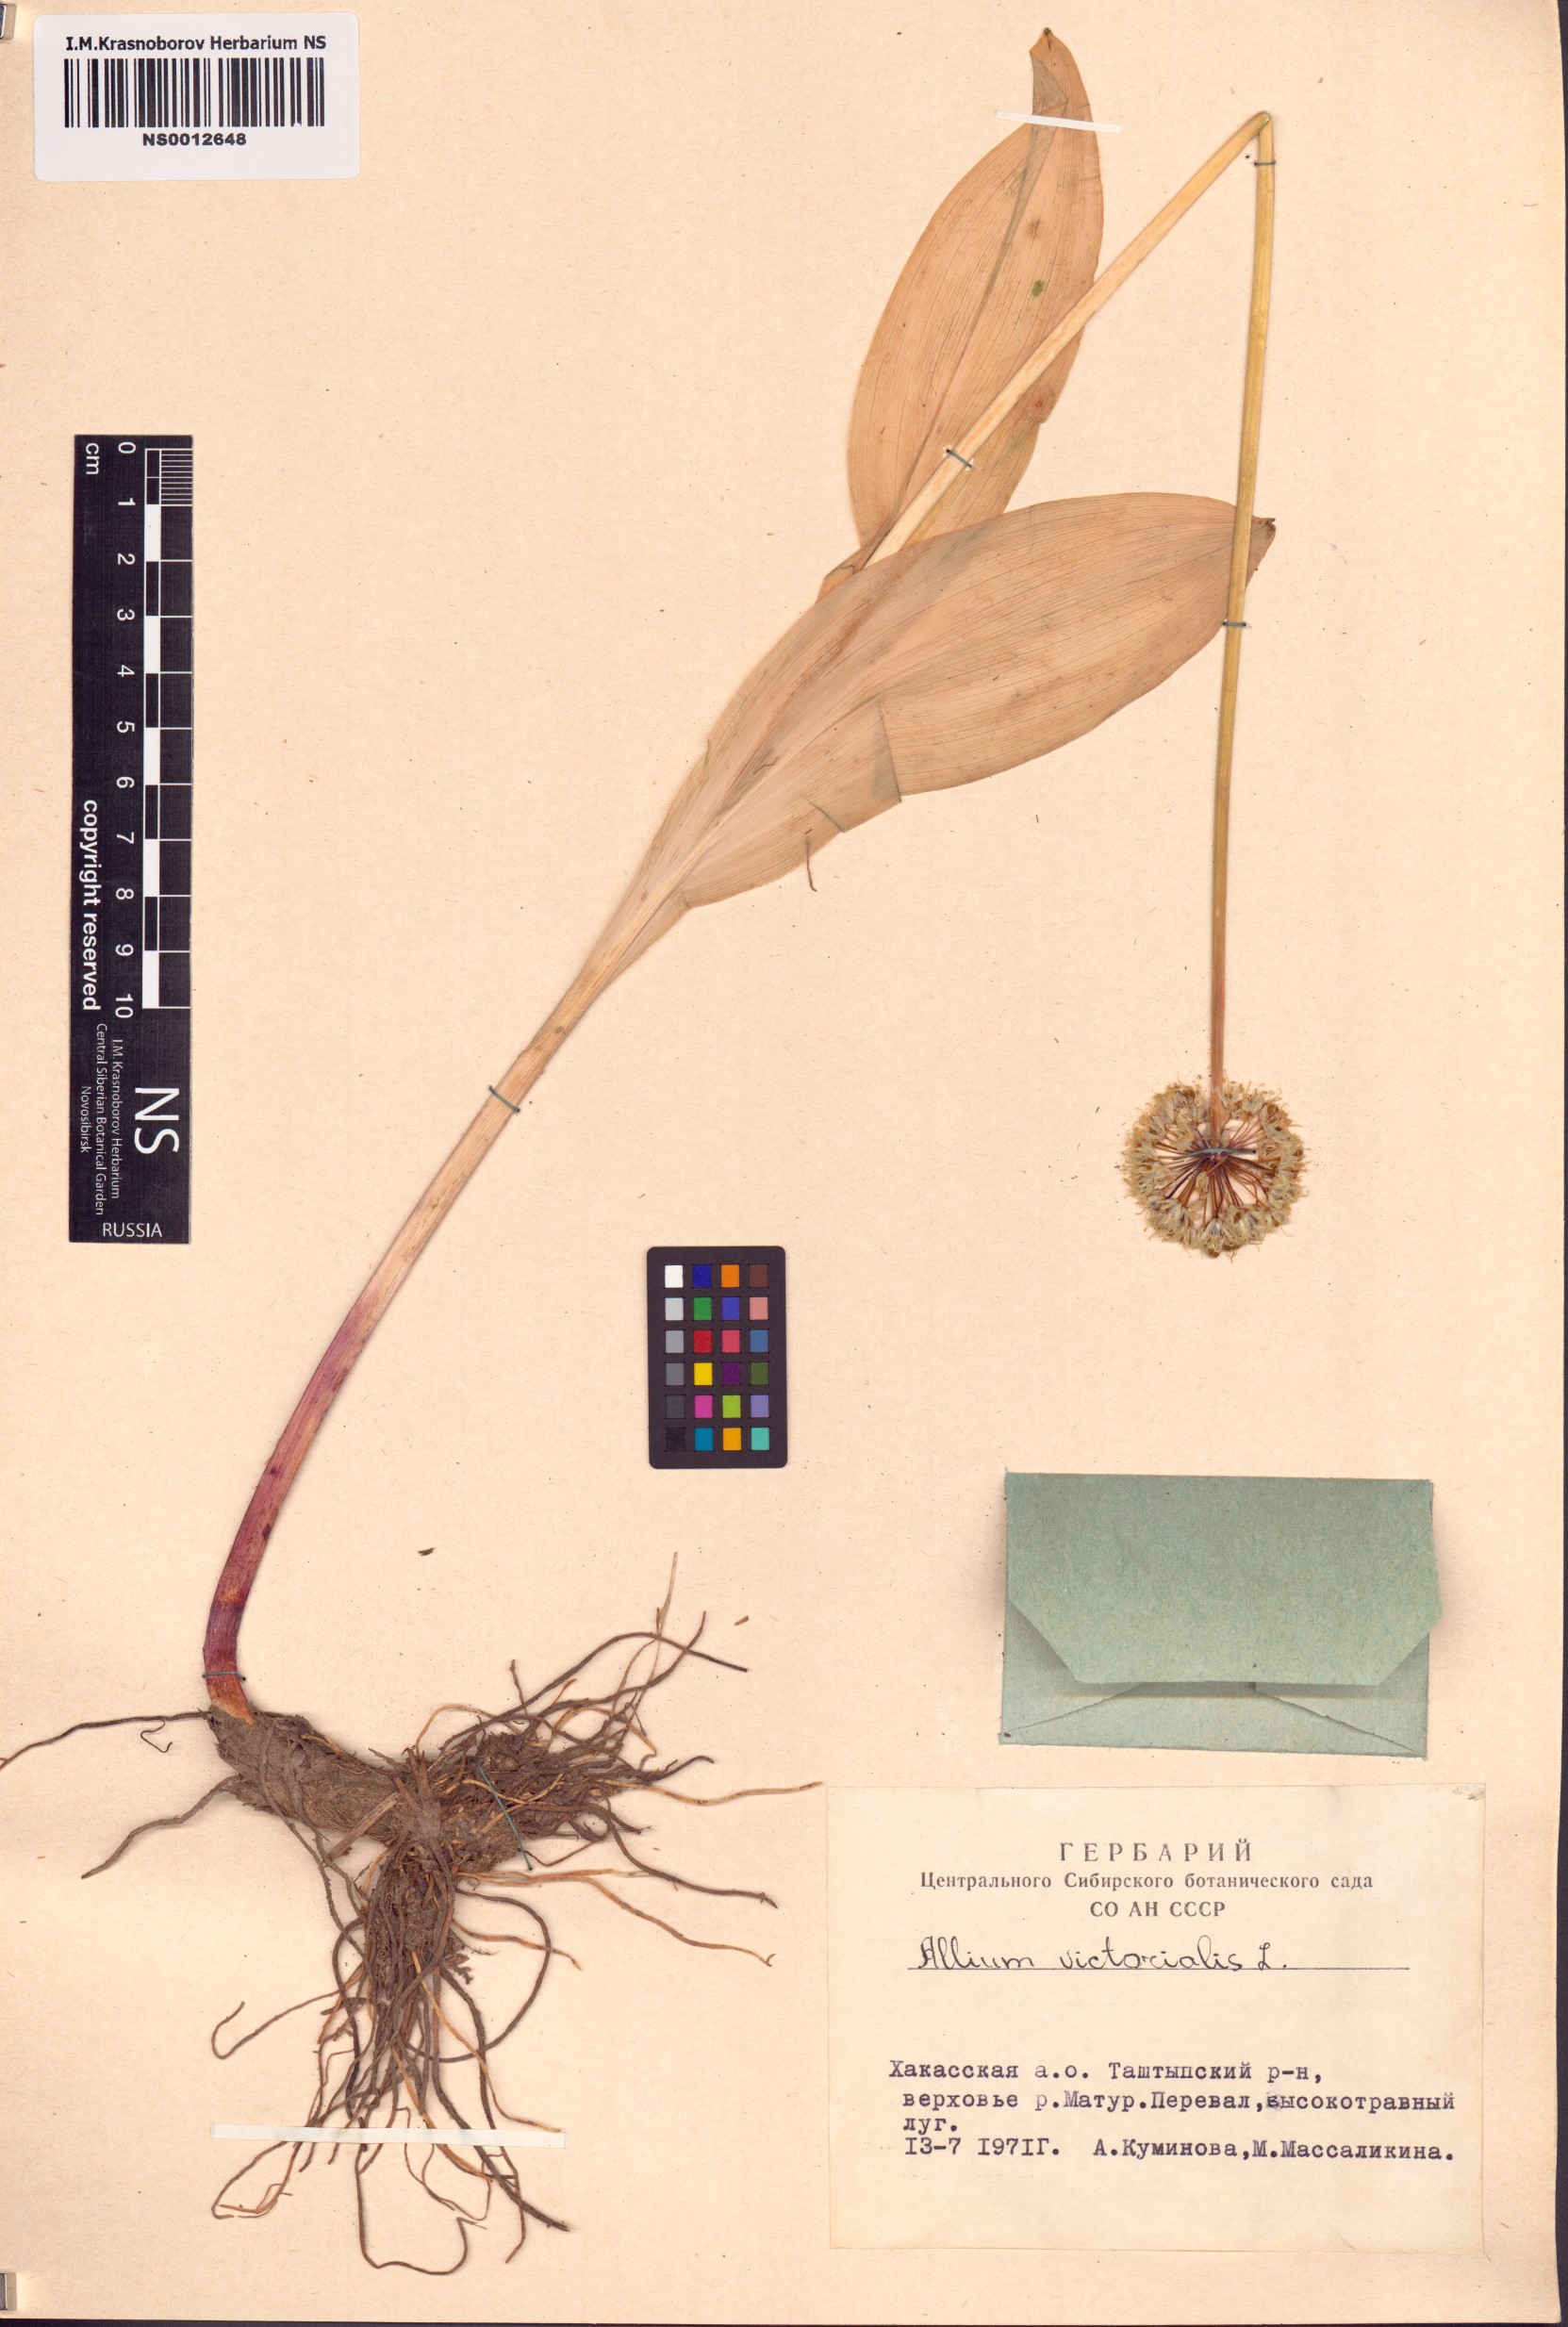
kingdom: Plantae
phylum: Tracheophyta
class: Liliopsida
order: Asparagales
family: Amaryllidaceae
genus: Allium
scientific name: Allium microdictyon
